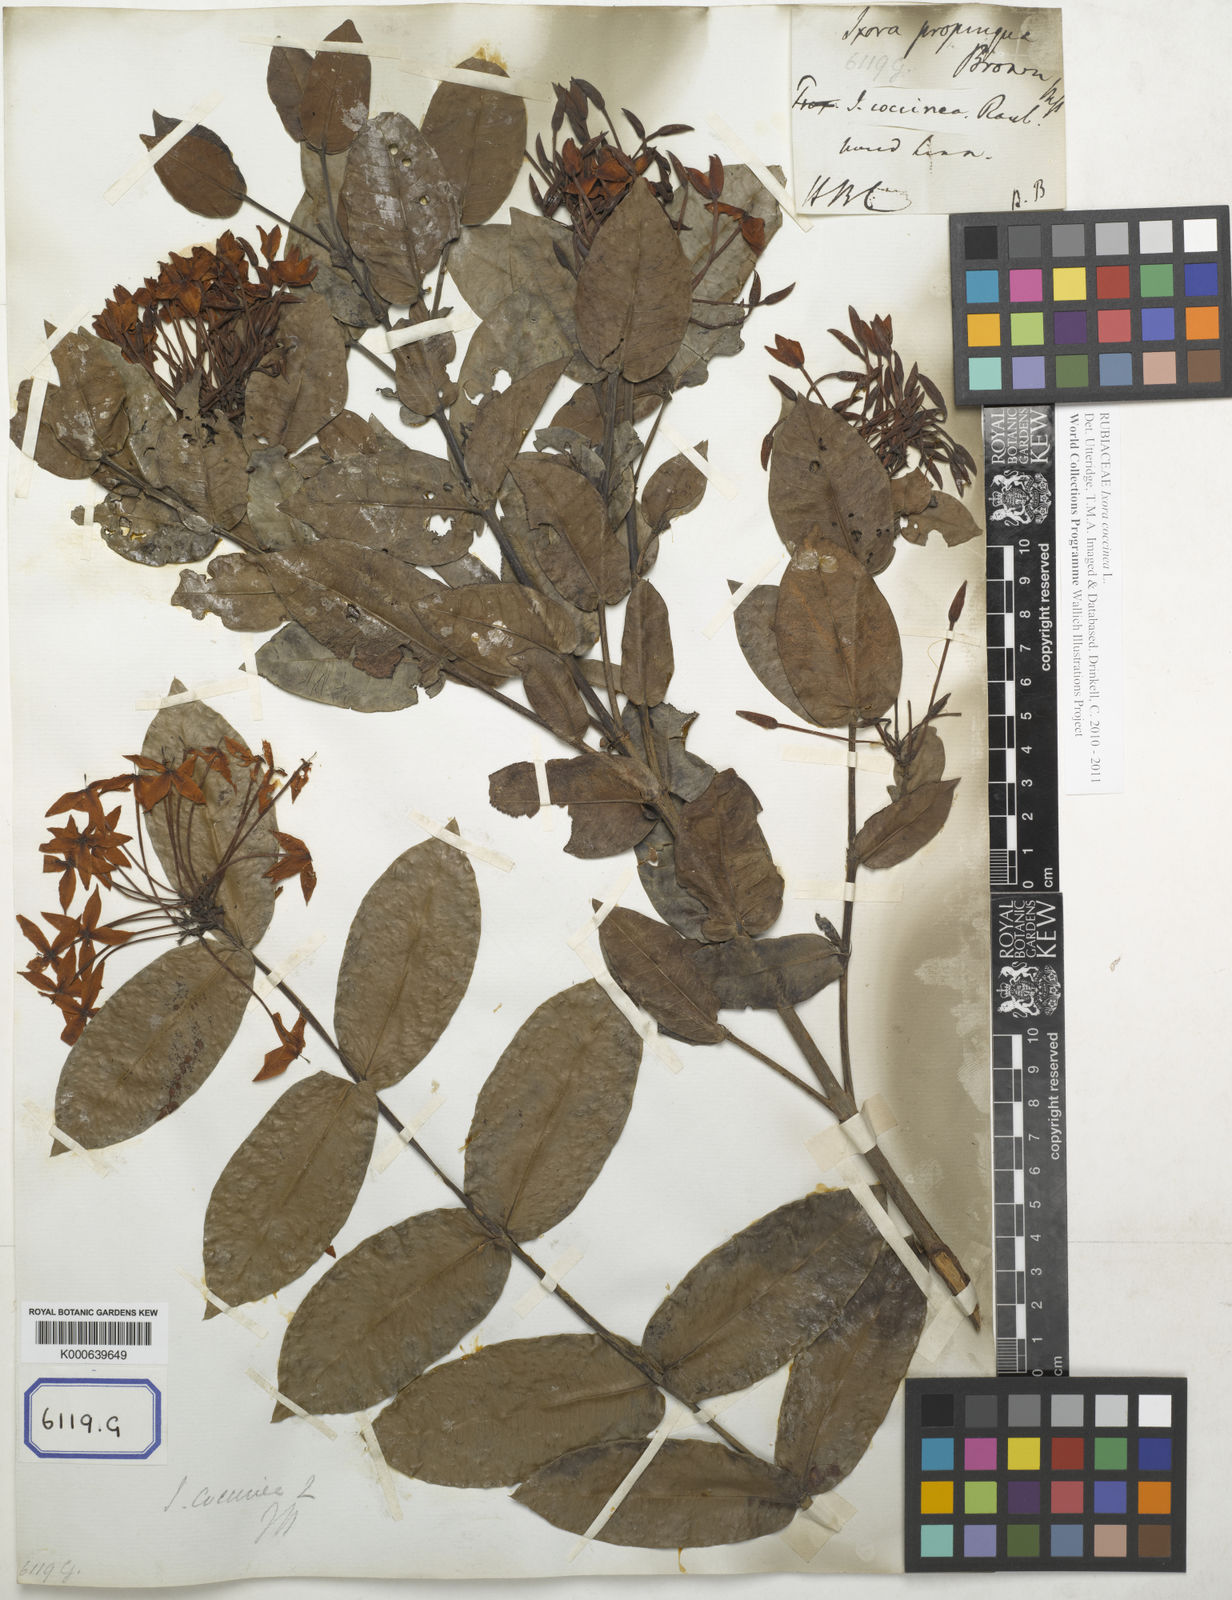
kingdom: Plantae
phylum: Tracheophyta
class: Magnoliopsida
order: Gentianales
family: Rubiaceae
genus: Ixora
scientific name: Ixora coccinea
